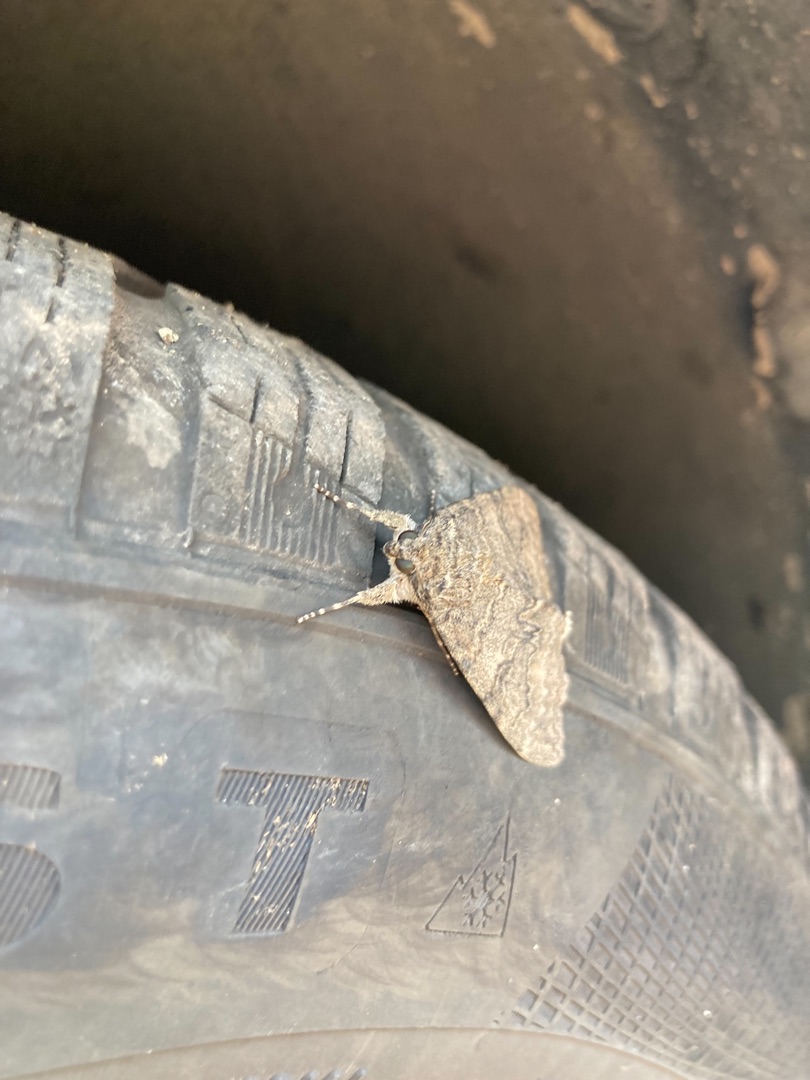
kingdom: Animalia
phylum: Arthropoda
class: Insecta
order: Lepidoptera
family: Erebidae
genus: Catocala
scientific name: Catocala nupta
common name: Rødt ordensbånd
